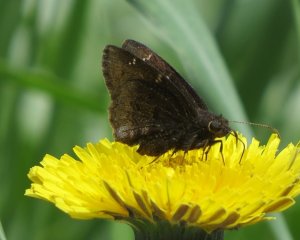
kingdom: Animalia
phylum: Arthropoda
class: Insecta
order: Lepidoptera
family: Hesperiidae
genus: Autochton
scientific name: Autochton
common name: Northern Cloudywing
